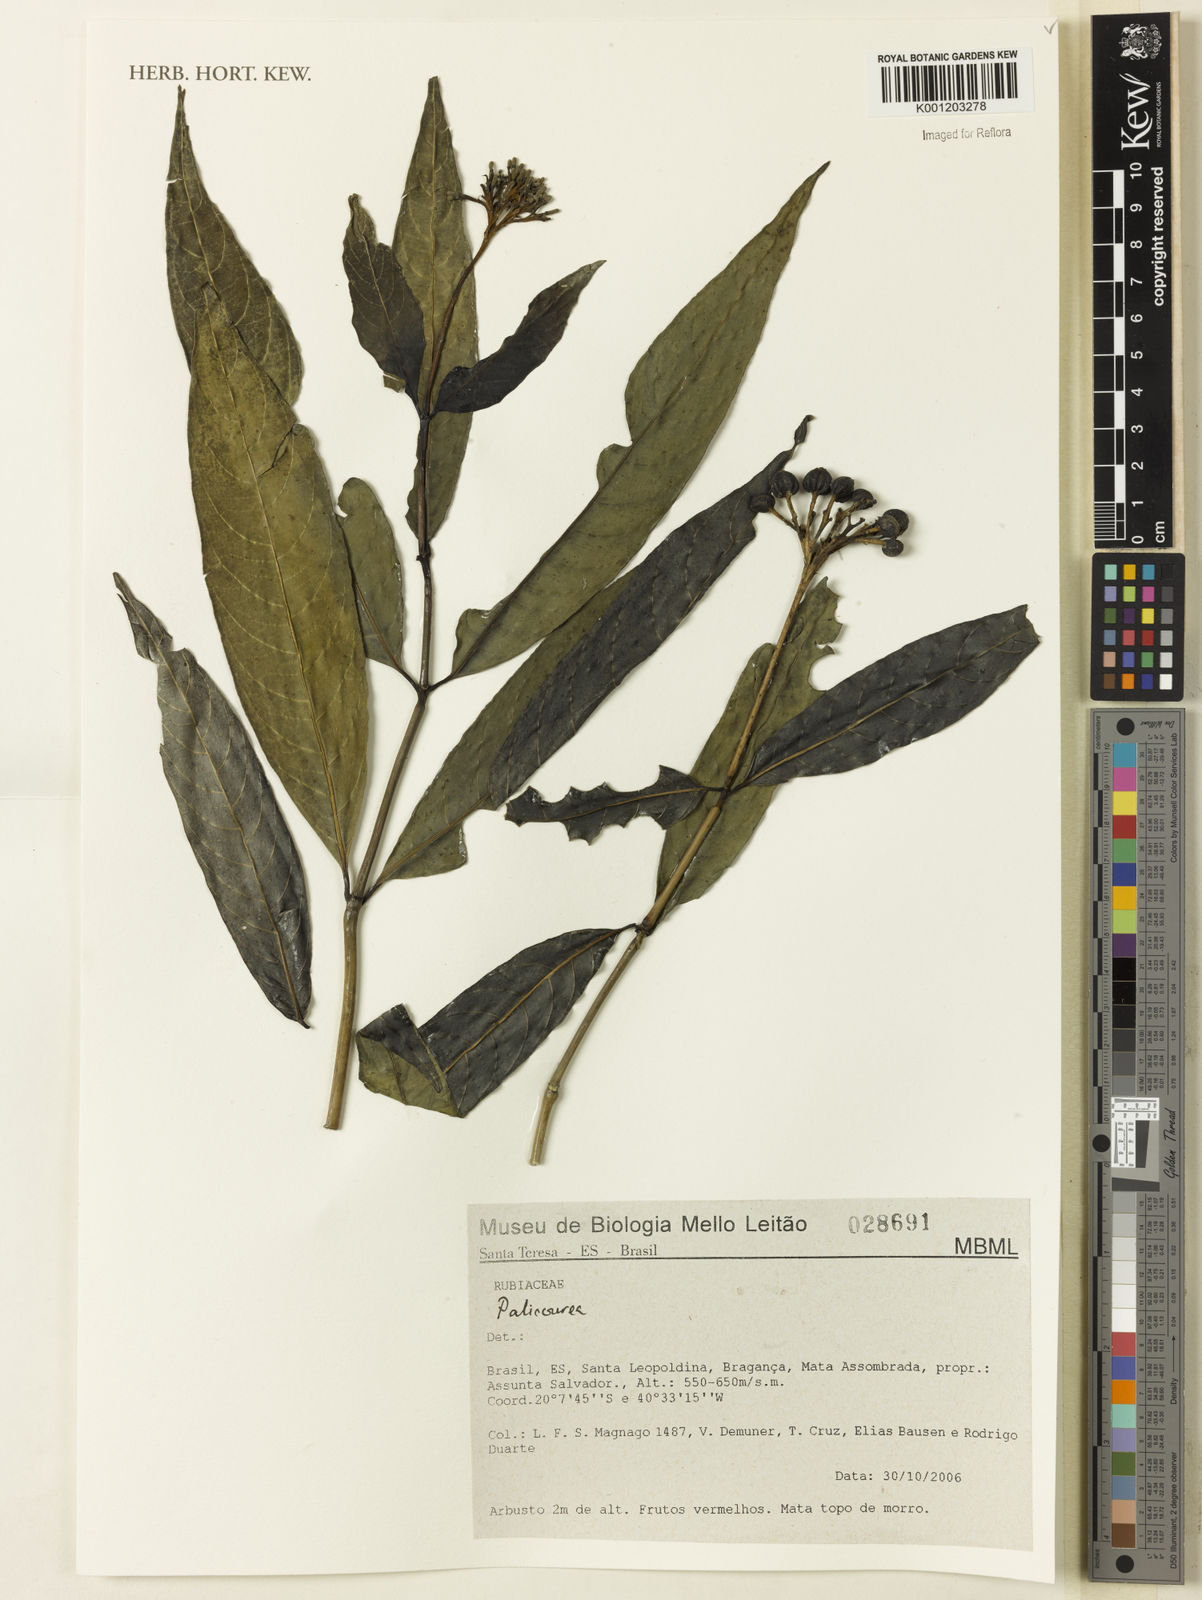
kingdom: Plantae
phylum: Tracheophyta
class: Magnoliopsida
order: Gentianales
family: Rubiaceae
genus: Palicourea
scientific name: Palicourea
